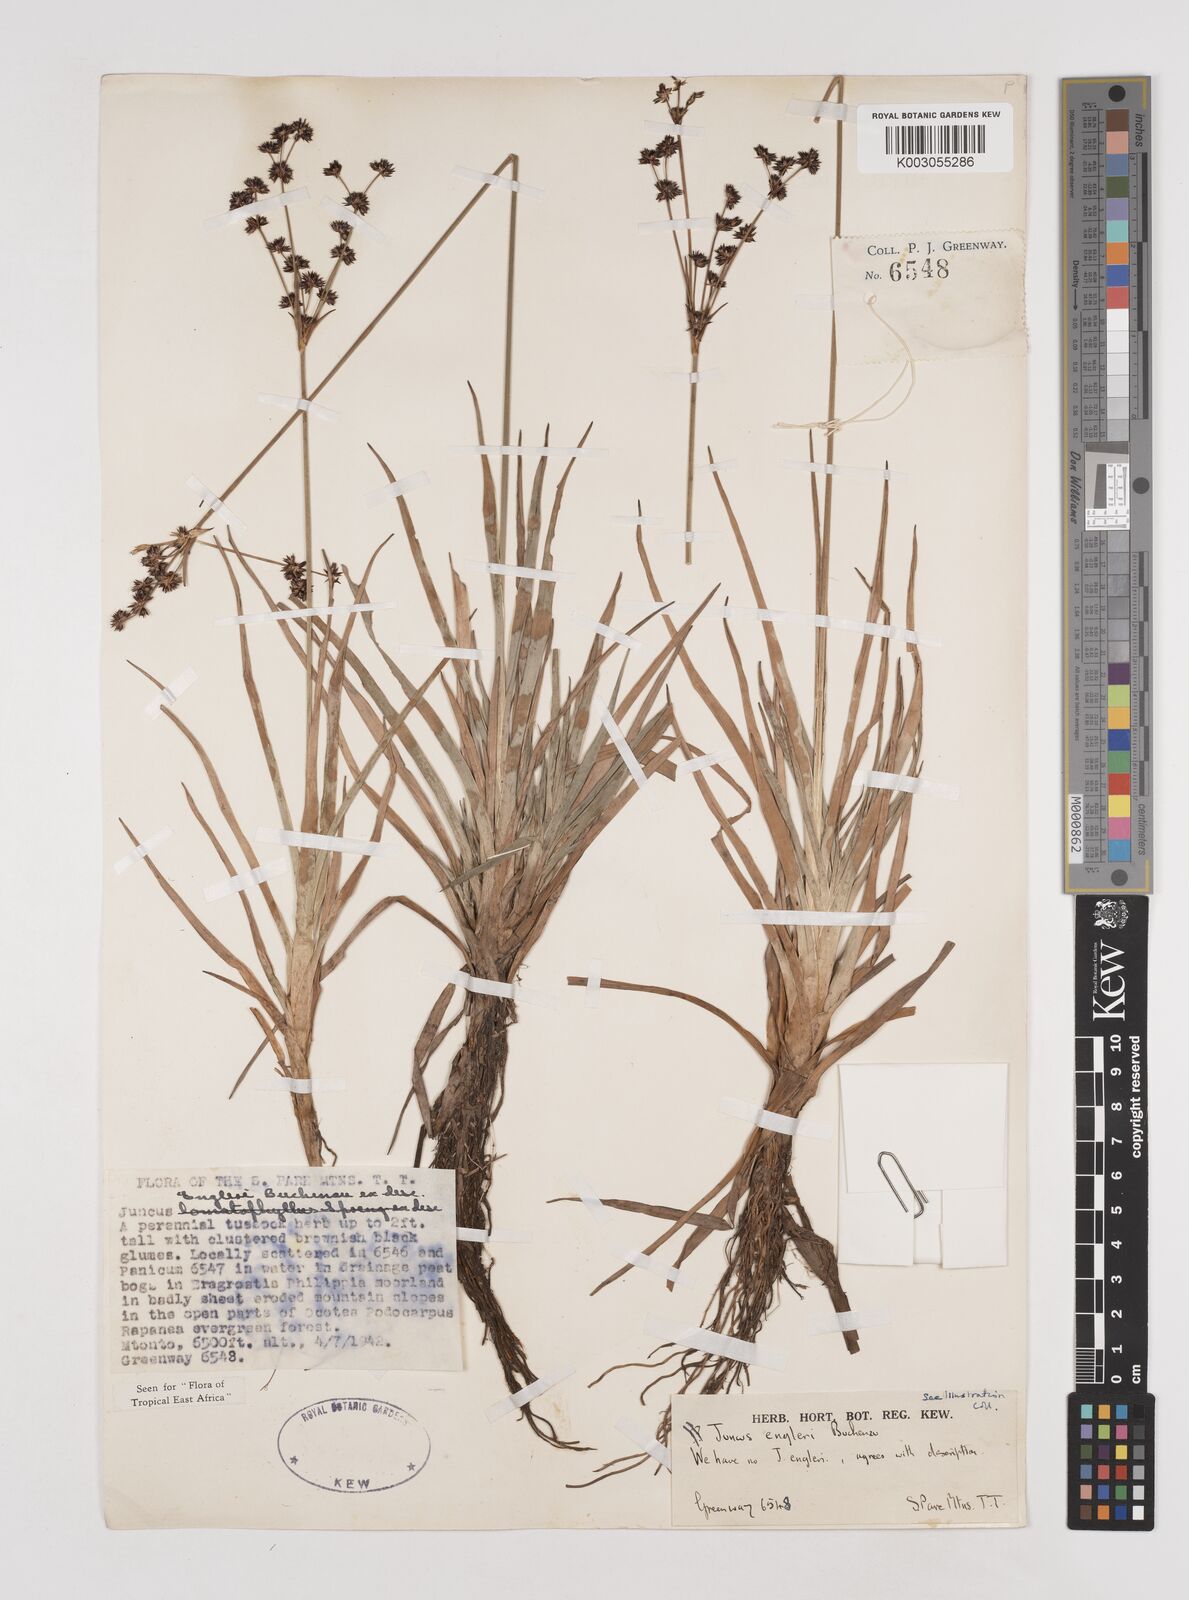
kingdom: Plantae
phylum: Tracheophyta
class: Liliopsida
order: Poales
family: Juncaceae
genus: Juncus
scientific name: Juncus engleri
